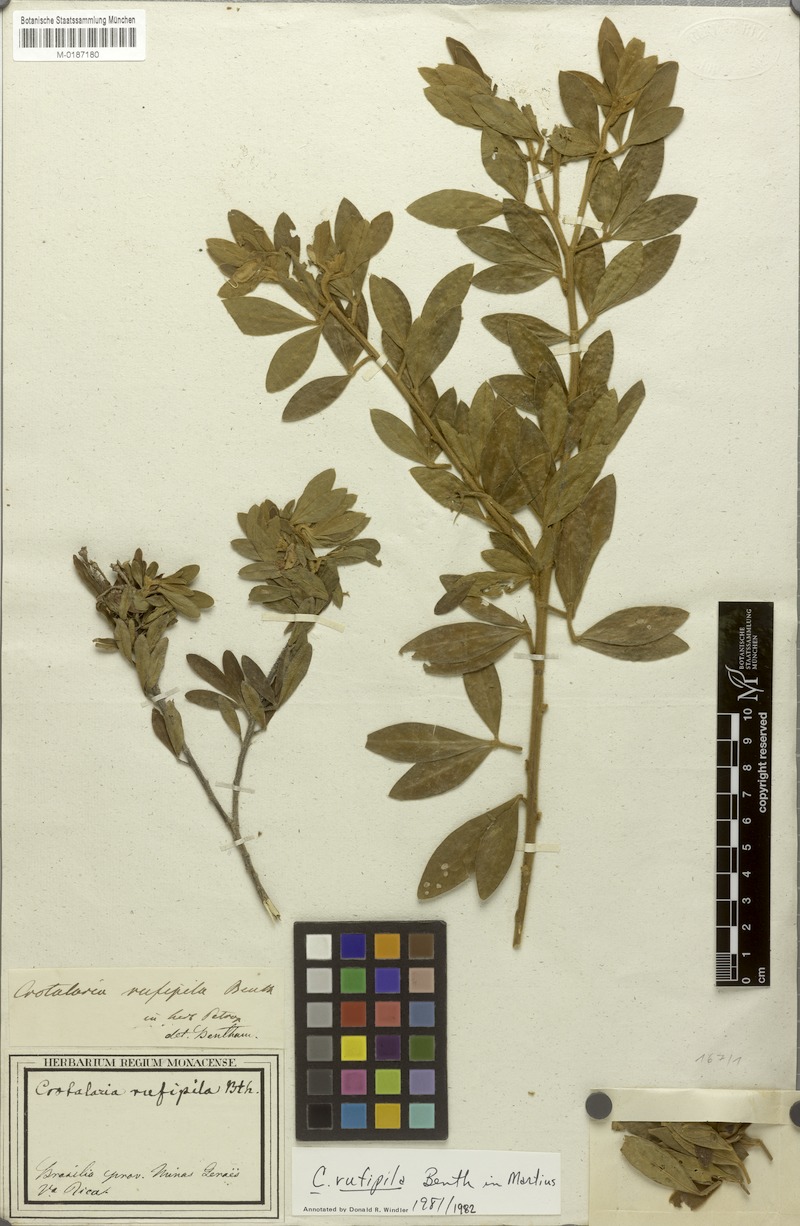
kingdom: Plantae
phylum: Tracheophyta
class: Magnoliopsida
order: Fabales
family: Fabaceae
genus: Crotalaria
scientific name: Crotalaria rufipila
